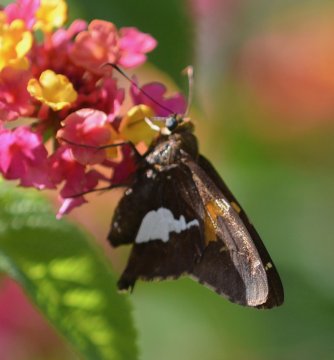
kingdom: Animalia
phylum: Arthropoda
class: Insecta
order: Lepidoptera
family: Hesperiidae
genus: Epargyreus
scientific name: Epargyreus clarus
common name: Silver-spotted Skipper
